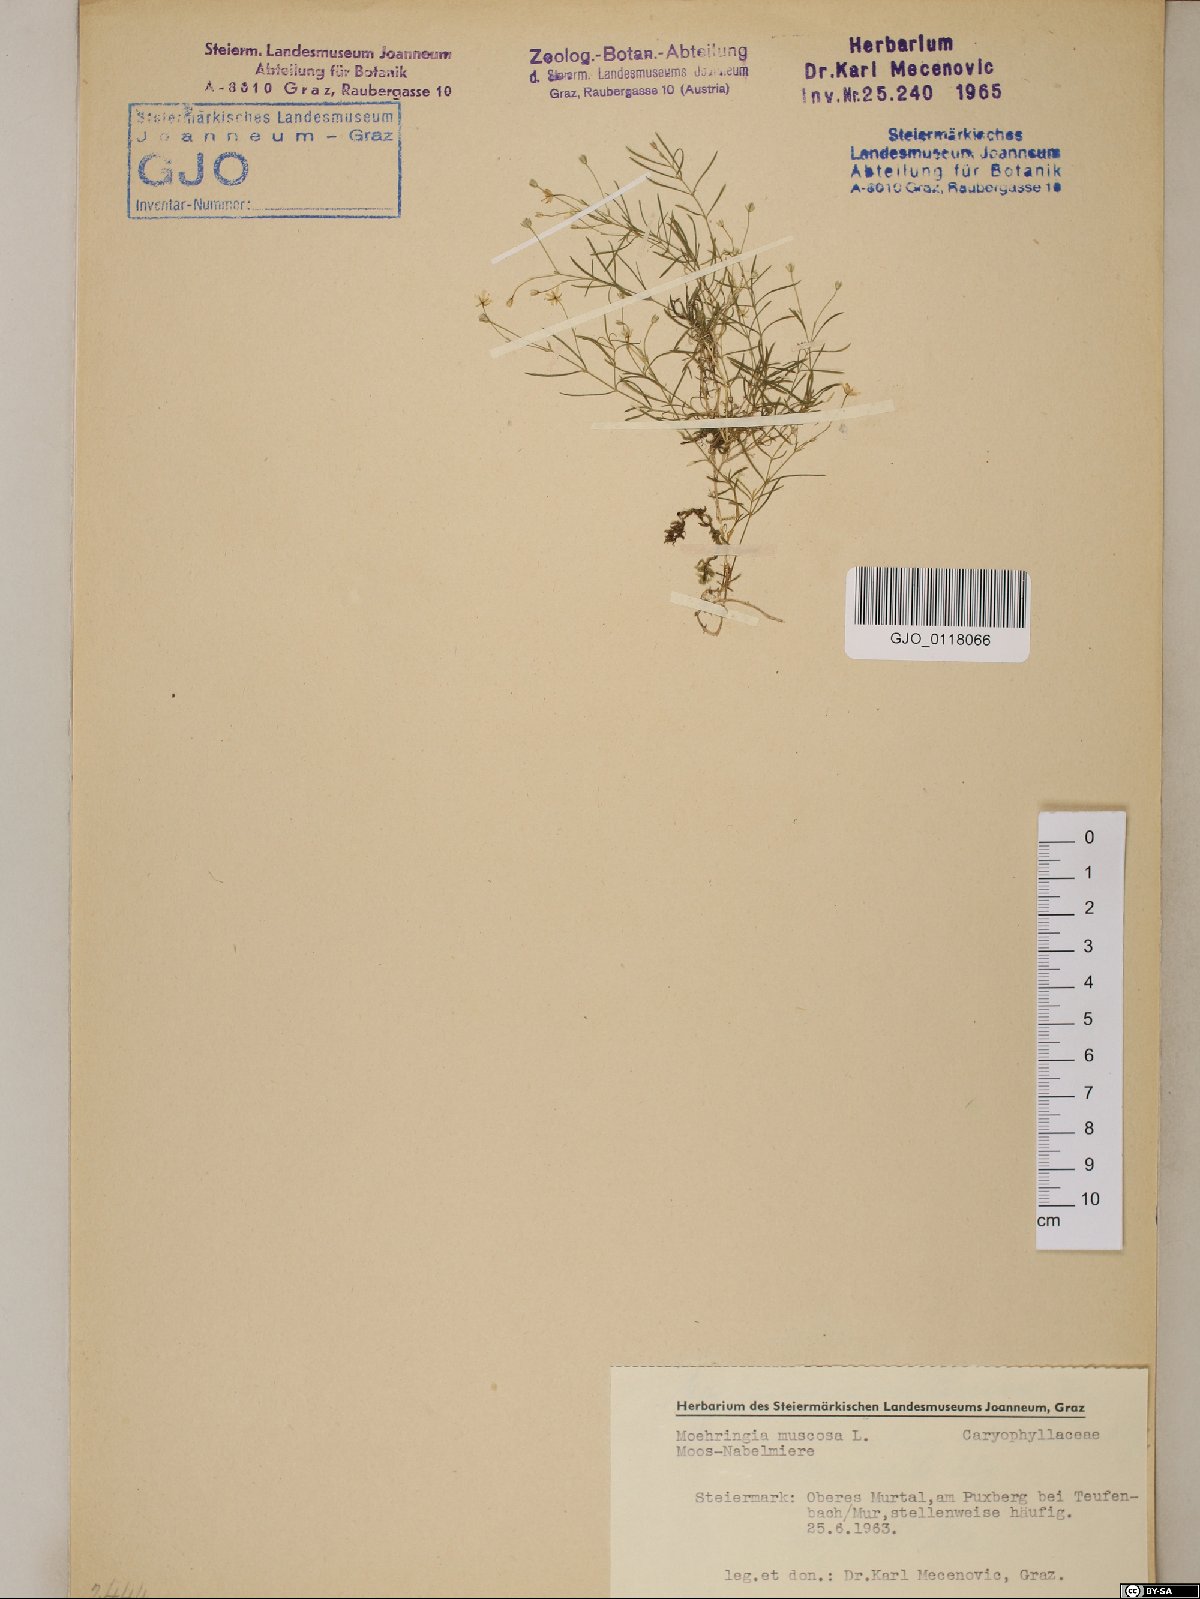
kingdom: Plantae
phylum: Tracheophyta
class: Magnoliopsida
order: Caryophyllales
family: Caryophyllaceae
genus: Moehringia
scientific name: Moehringia muscosa
